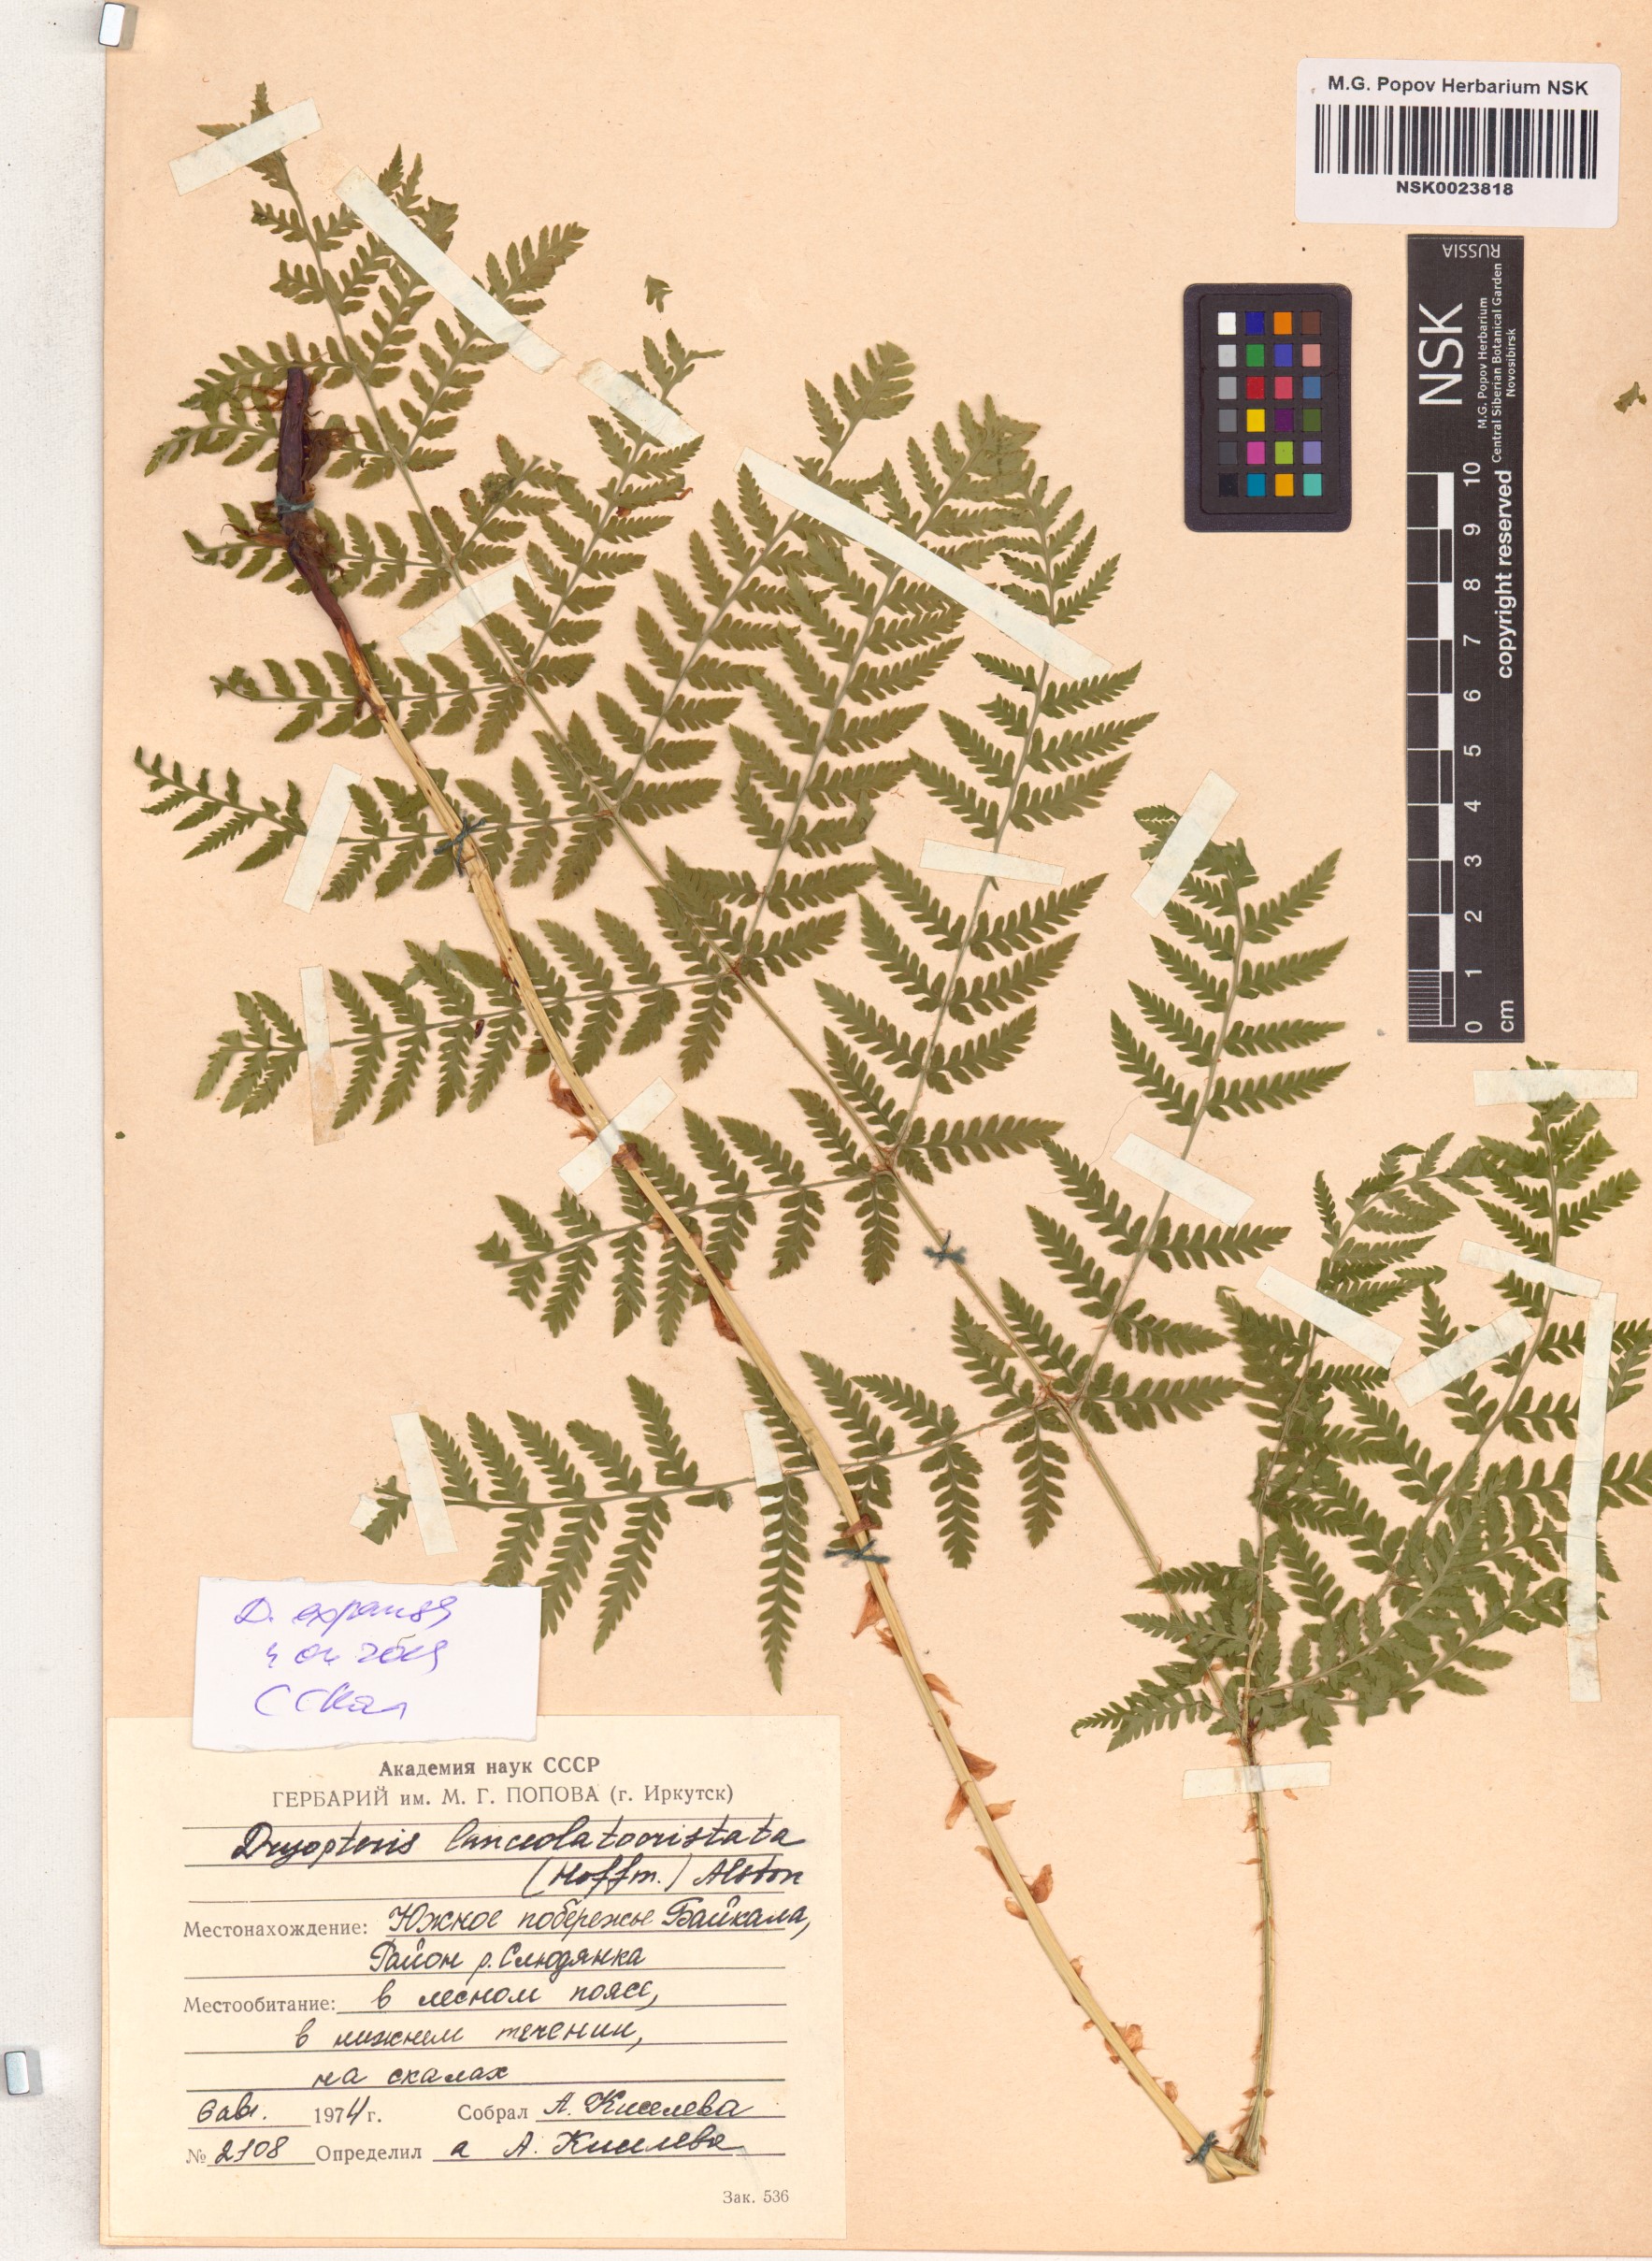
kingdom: Plantae
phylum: Tracheophyta
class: Polypodiopsida
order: Polypodiales
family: Dryopteridaceae
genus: Dryopteris
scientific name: Dryopteris expansa
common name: Northern buckler fern
